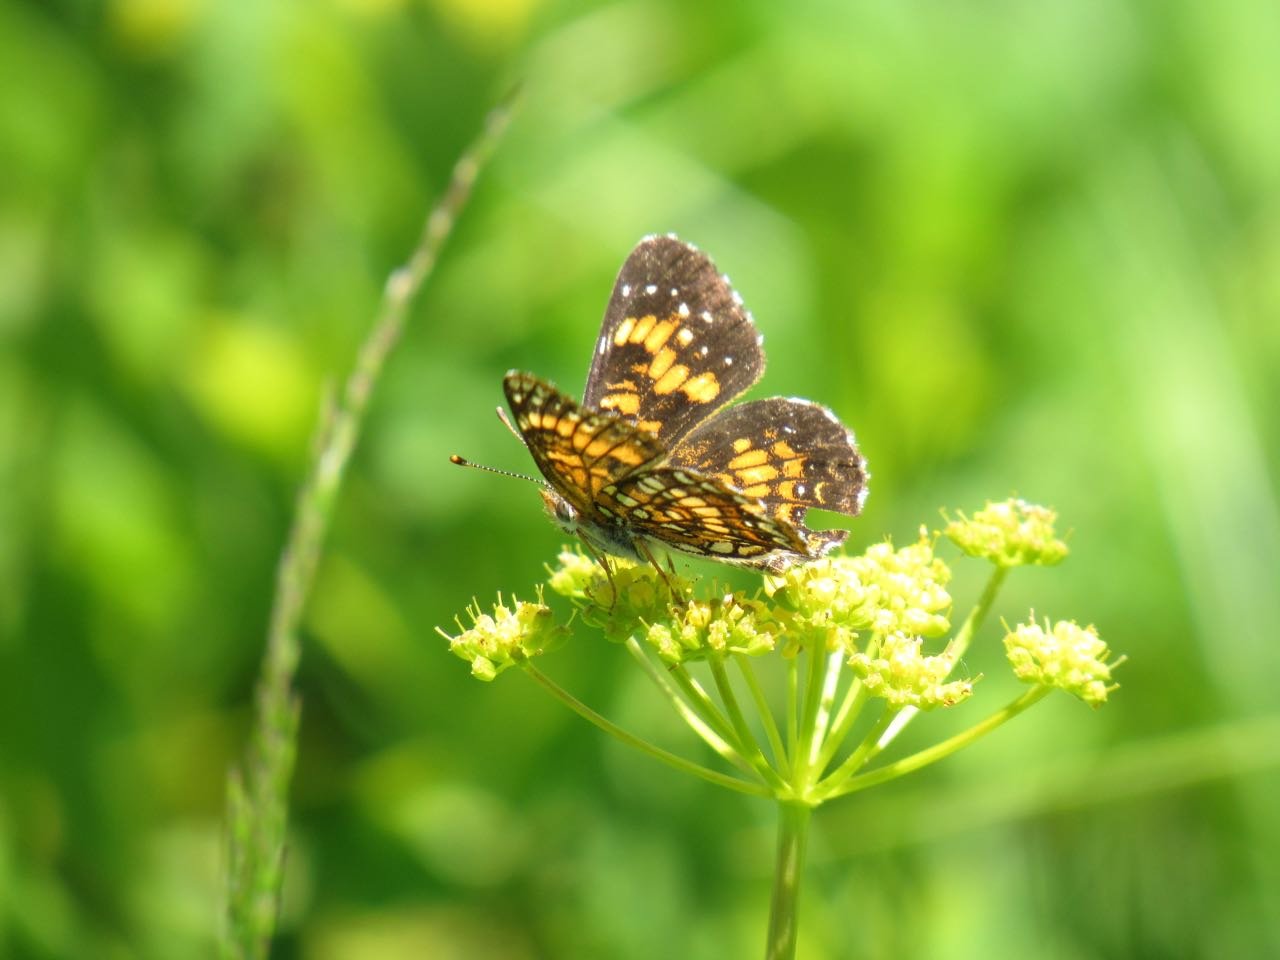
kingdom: Animalia
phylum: Arthropoda
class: Insecta
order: Lepidoptera
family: Nymphalidae
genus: Chlosyne
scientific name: Chlosyne harrisii
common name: Harris's Checkerspot
